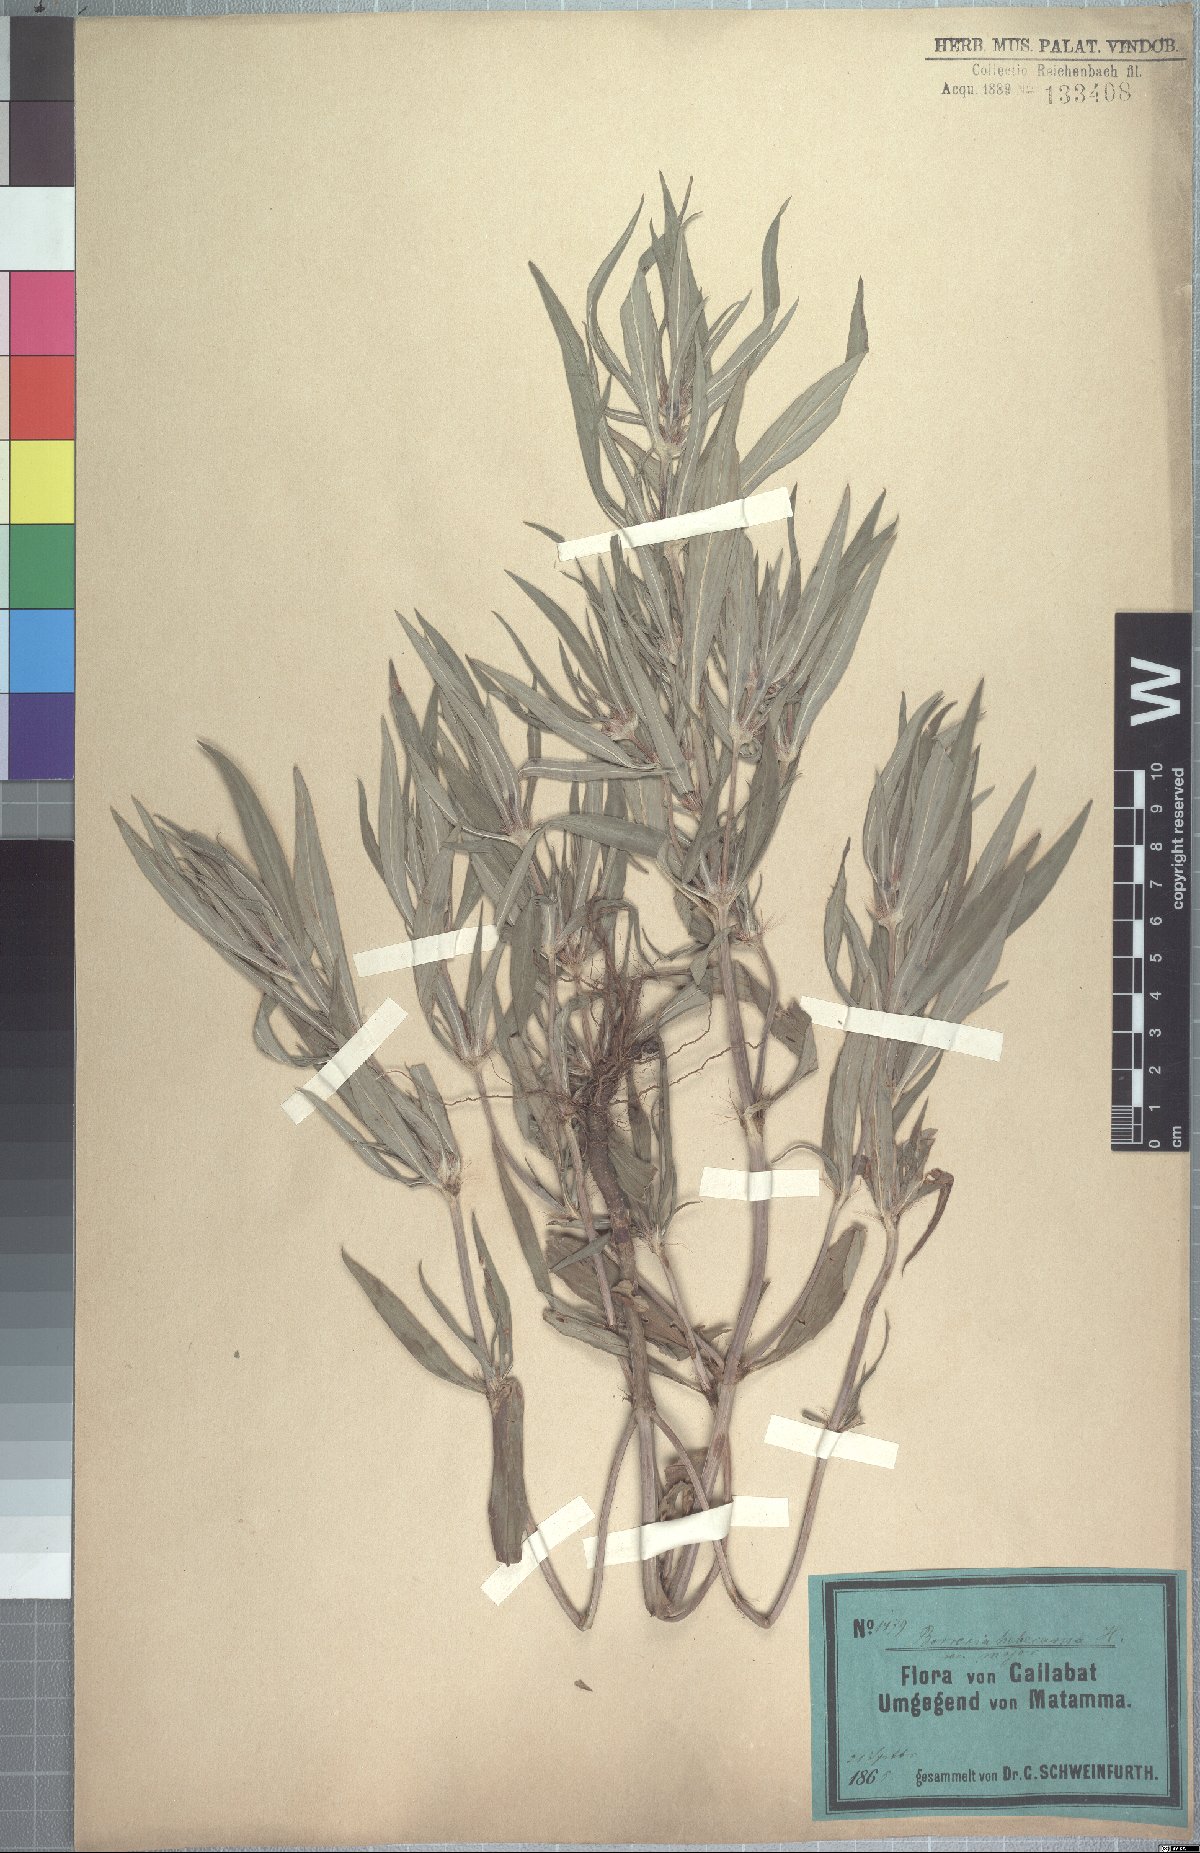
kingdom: Plantae
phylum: Tracheophyta
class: Magnoliopsida
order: Gentianales
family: Rubiaceae
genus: Spermacoce
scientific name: Spermacoce chaetocephala
